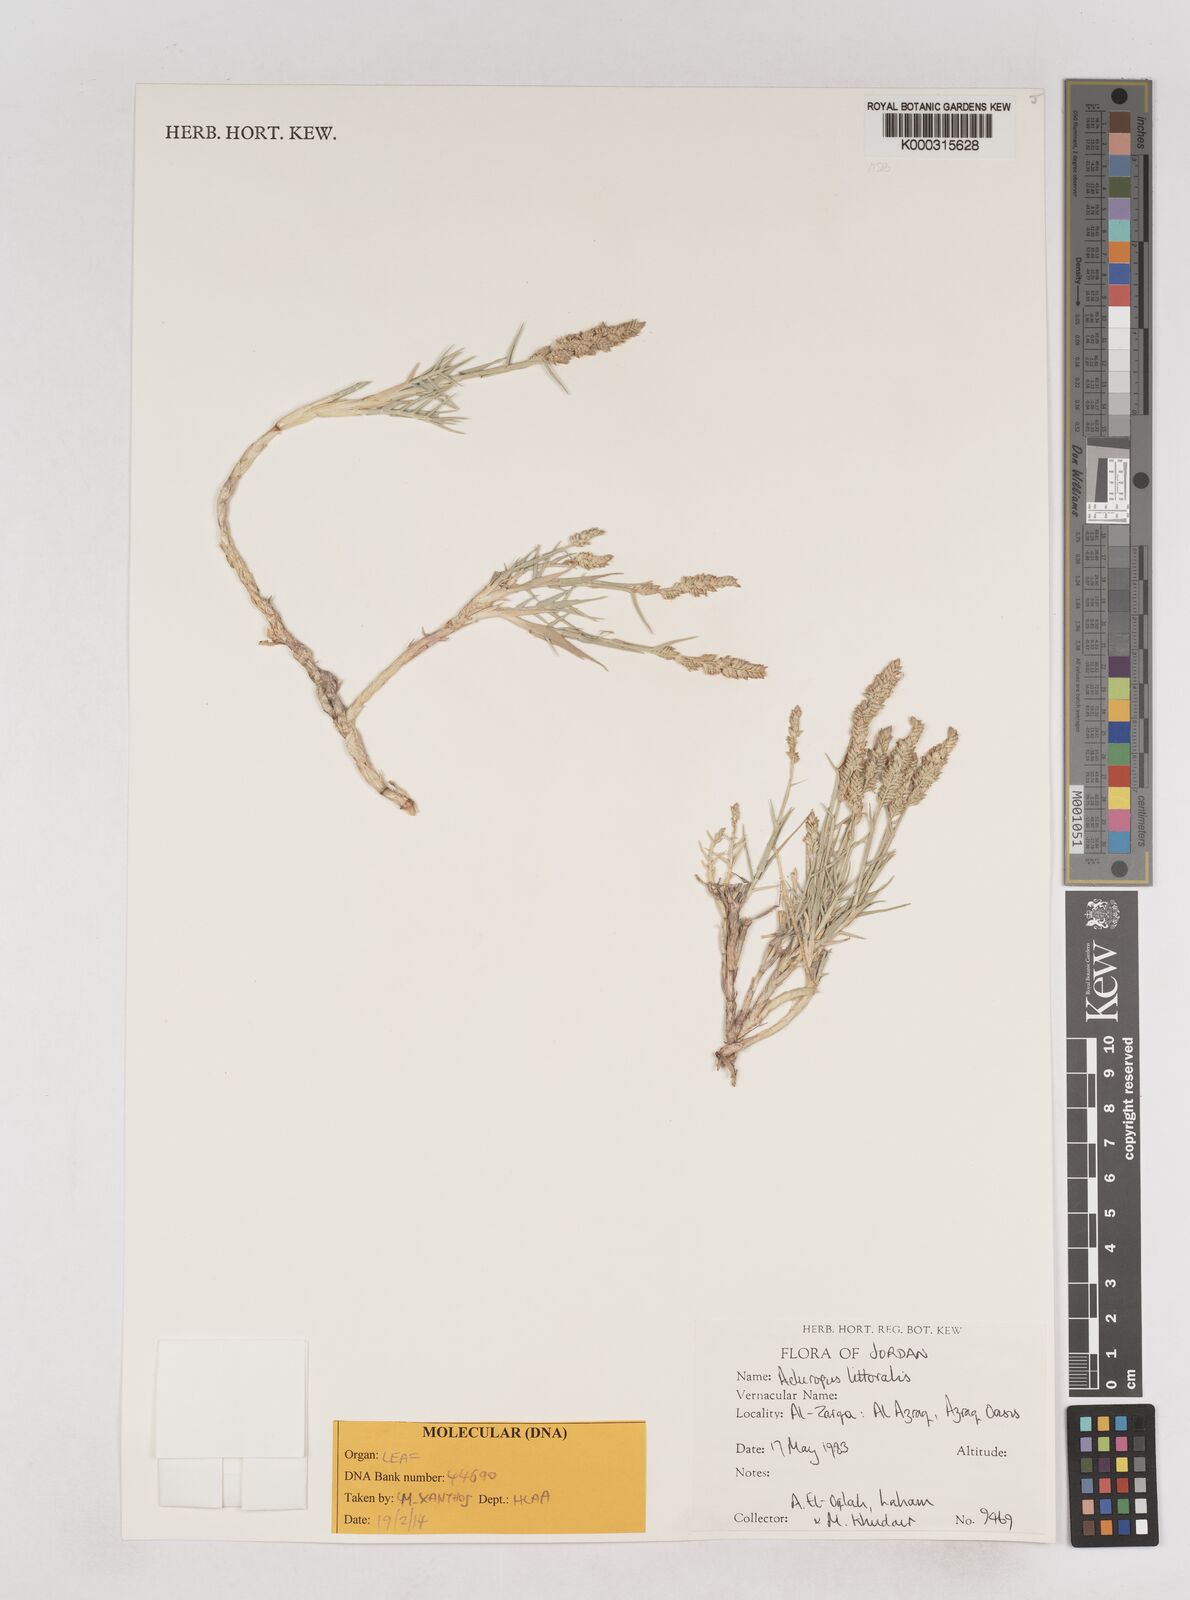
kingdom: Plantae
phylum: Tracheophyta
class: Liliopsida
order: Poales
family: Poaceae
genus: Aeluropus
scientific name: Aeluropus littoralis
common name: Indian walnut
